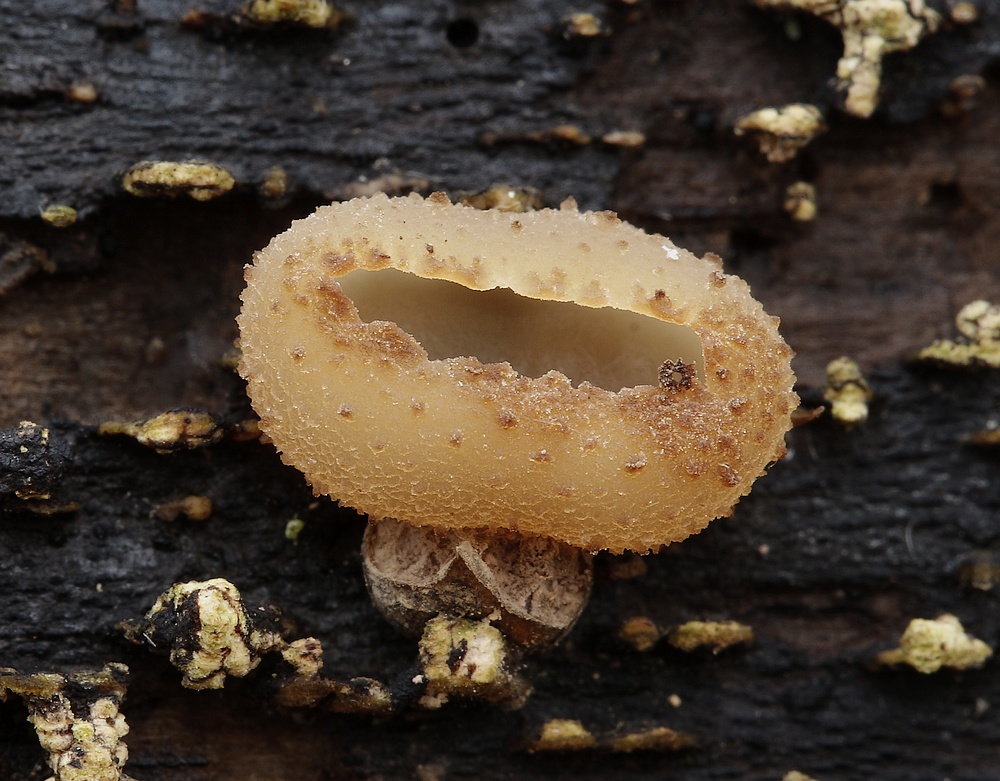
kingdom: Fungi
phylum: Ascomycota
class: Pezizomycetes
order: Pezizales
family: Pezizaceae
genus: Peziza
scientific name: Peziza
